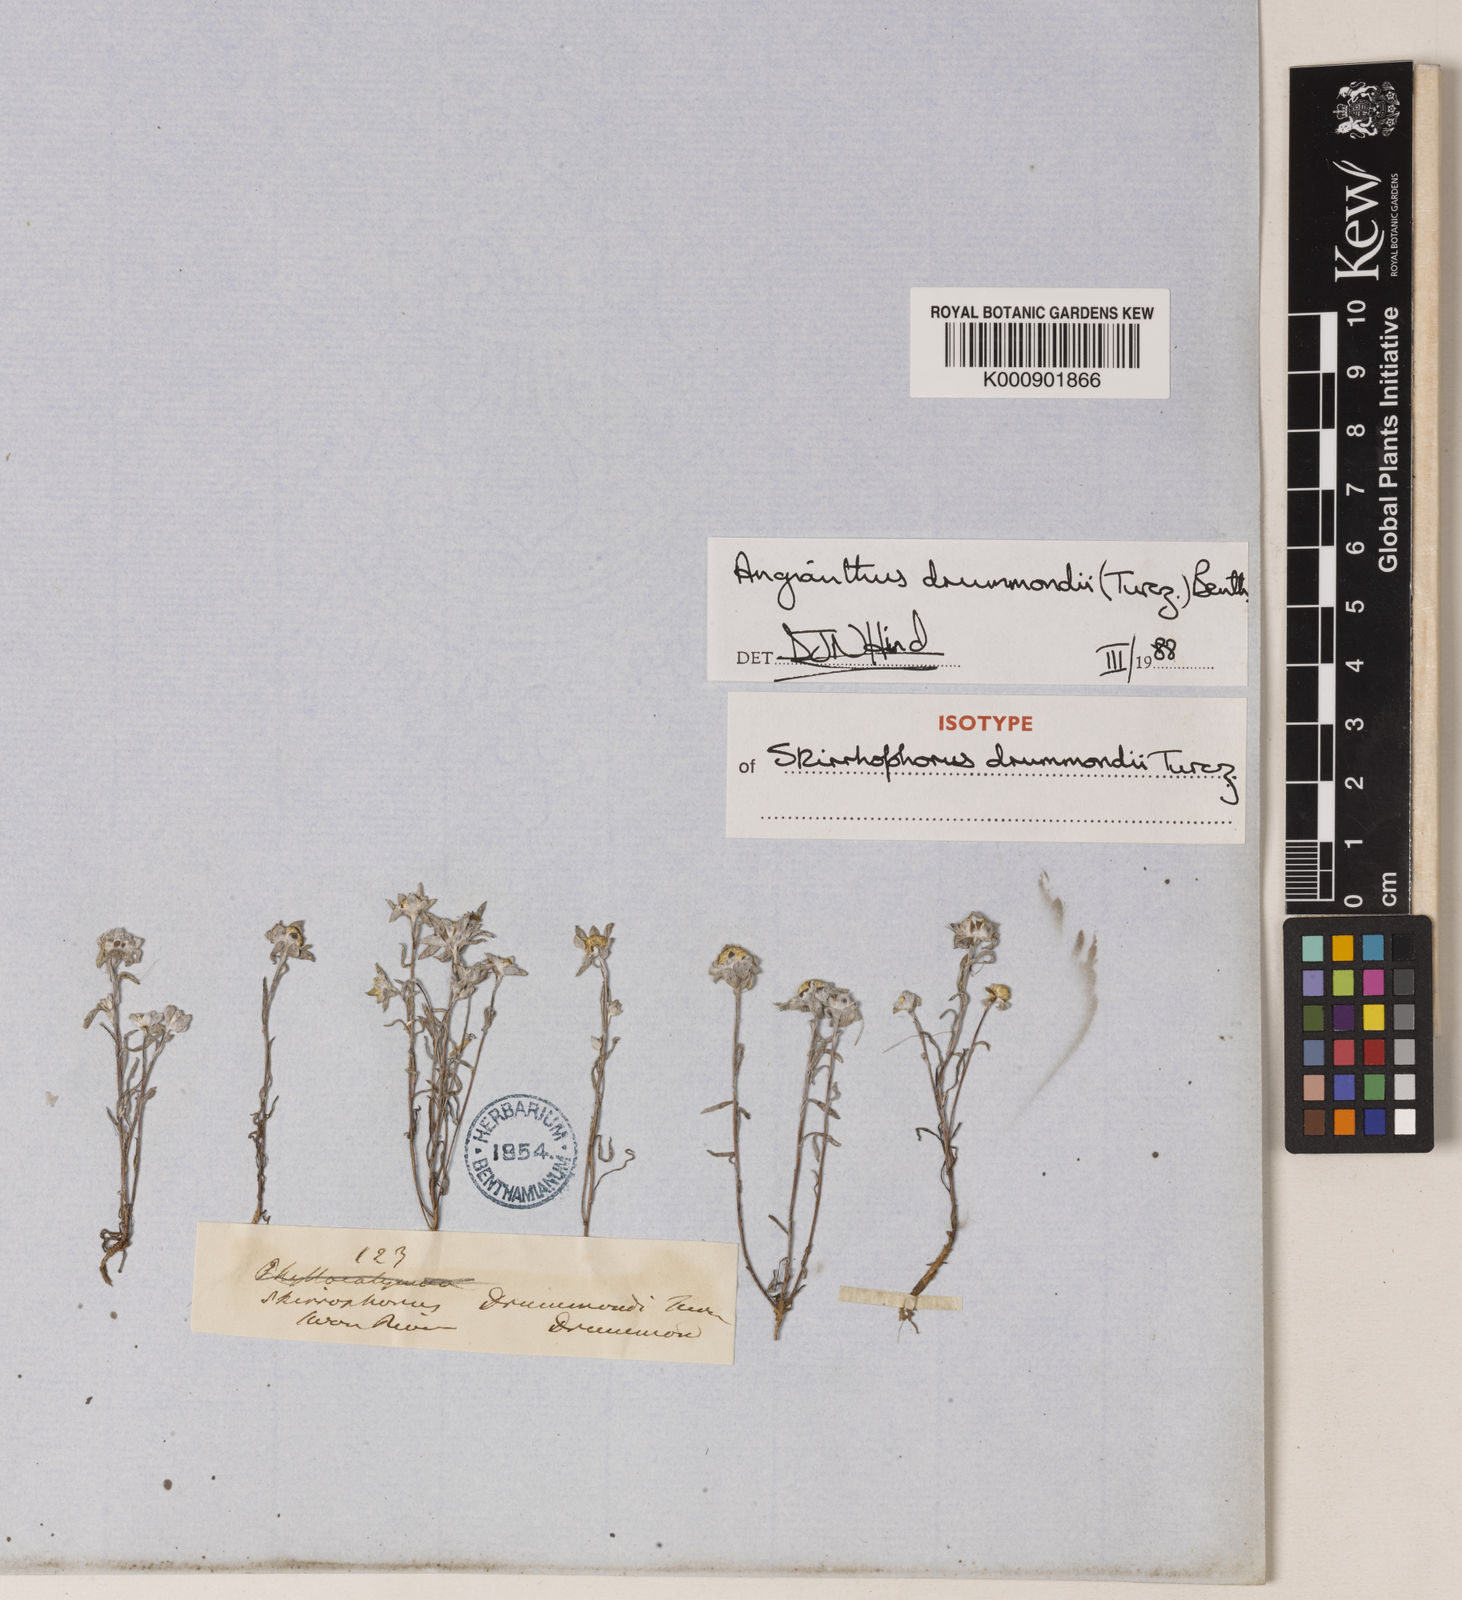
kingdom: Plantae
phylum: Tracheophyta
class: Magnoliopsida
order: Asterales
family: Asteraceae
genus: Angianthus
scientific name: Angianthus
